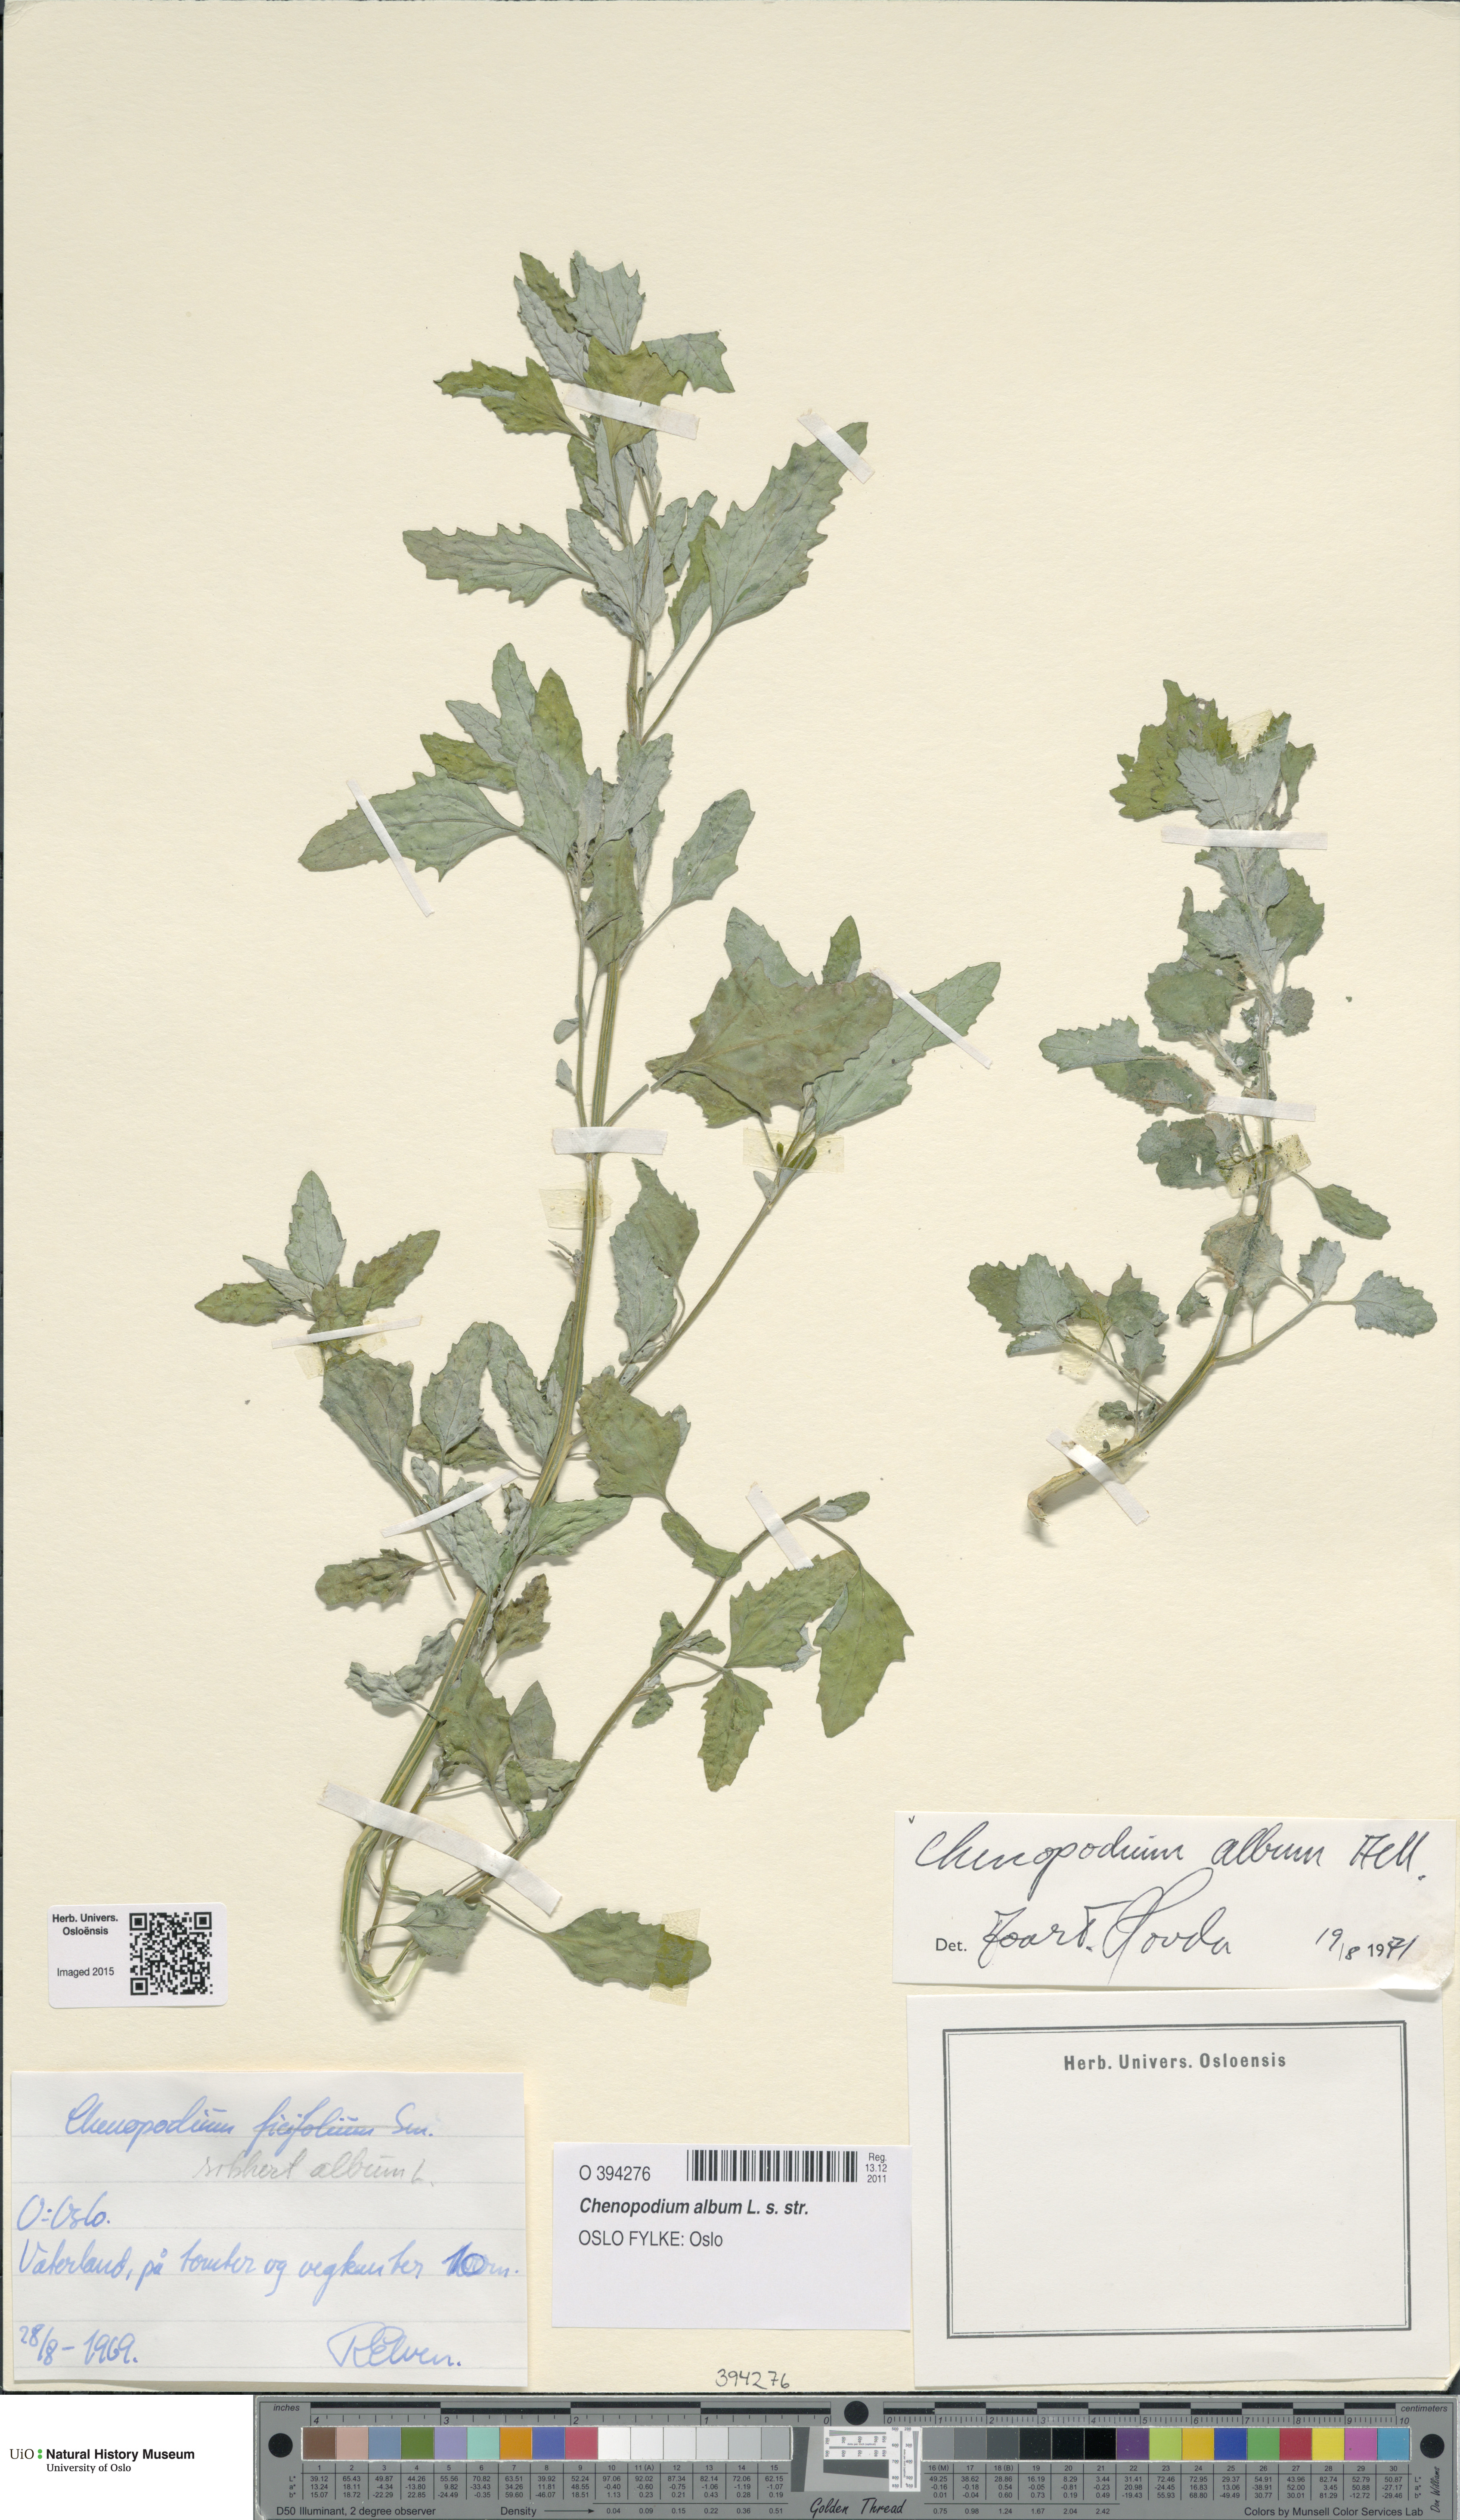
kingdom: Plantae
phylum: Tracheophyta
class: Magnoliopsida
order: Caryophyllales
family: Amaranthaceae
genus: Chenopodium
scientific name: Chenopodium album
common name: Fat-hen
